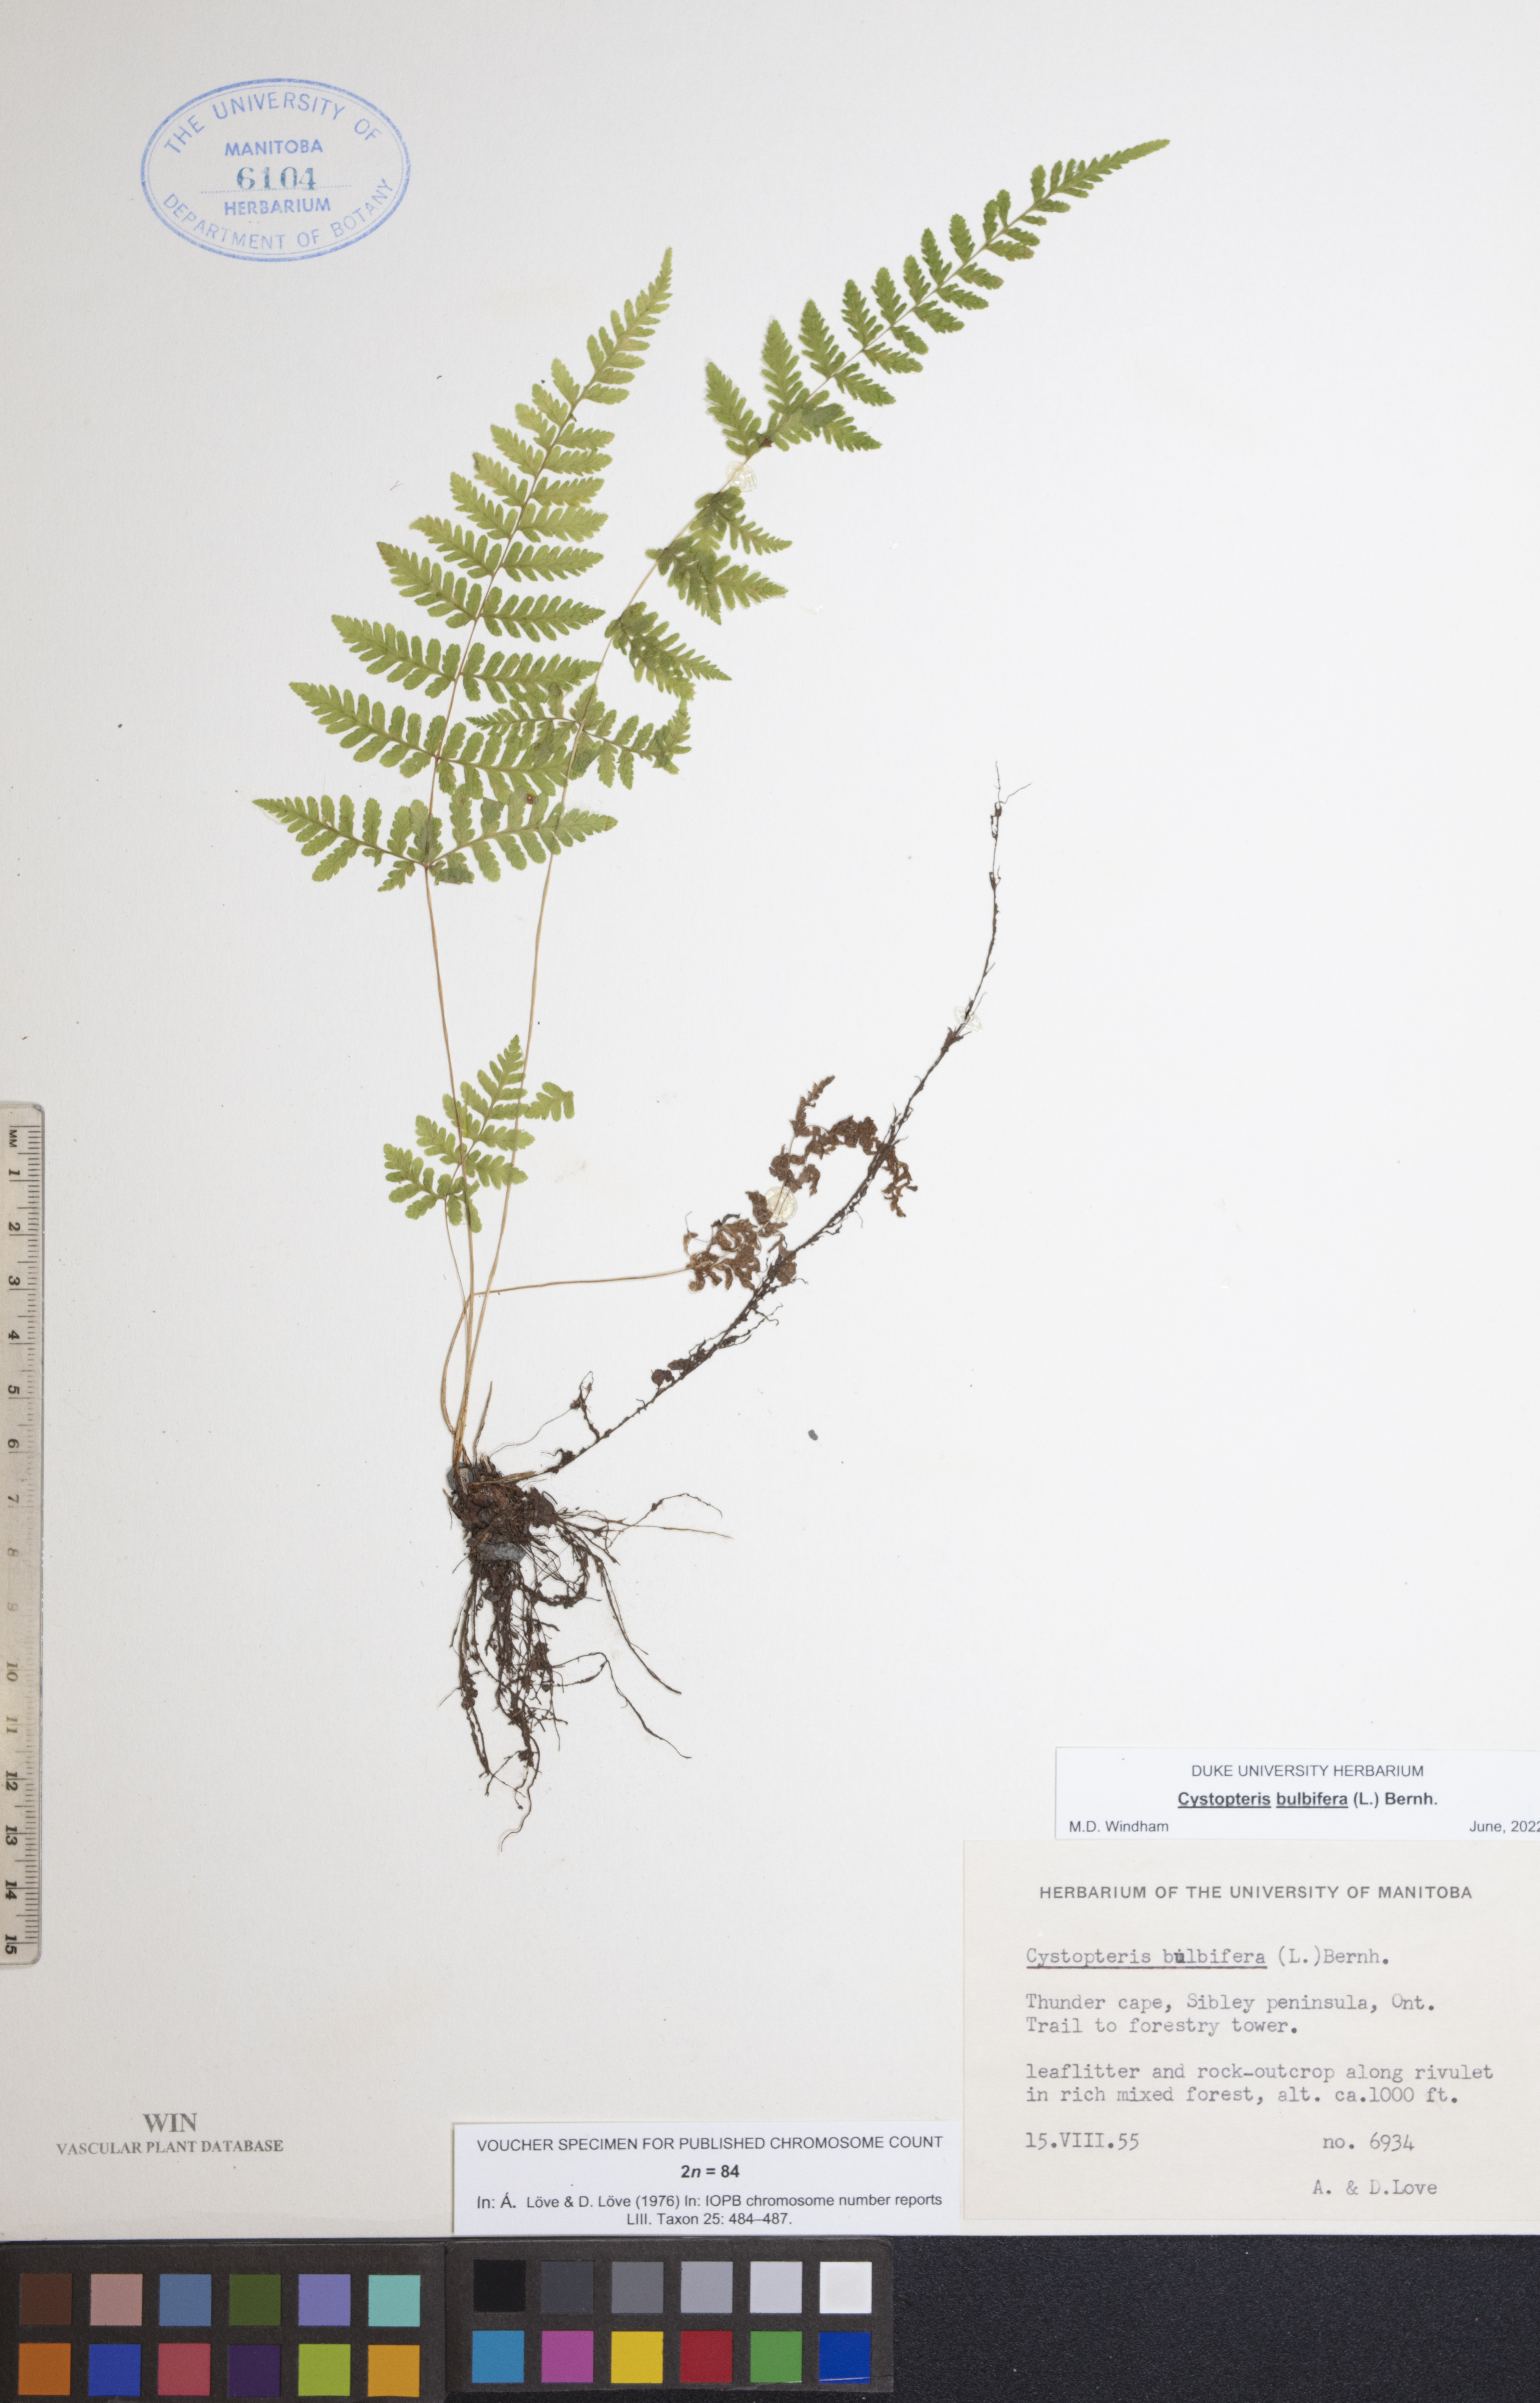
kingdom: Plantae
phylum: Tracheophyta
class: Polypodiopsida
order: Polypodiales
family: Cystopteridaceae
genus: Cystopteris
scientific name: Cystopteris bulbifera
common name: Bulblet bladder fern
